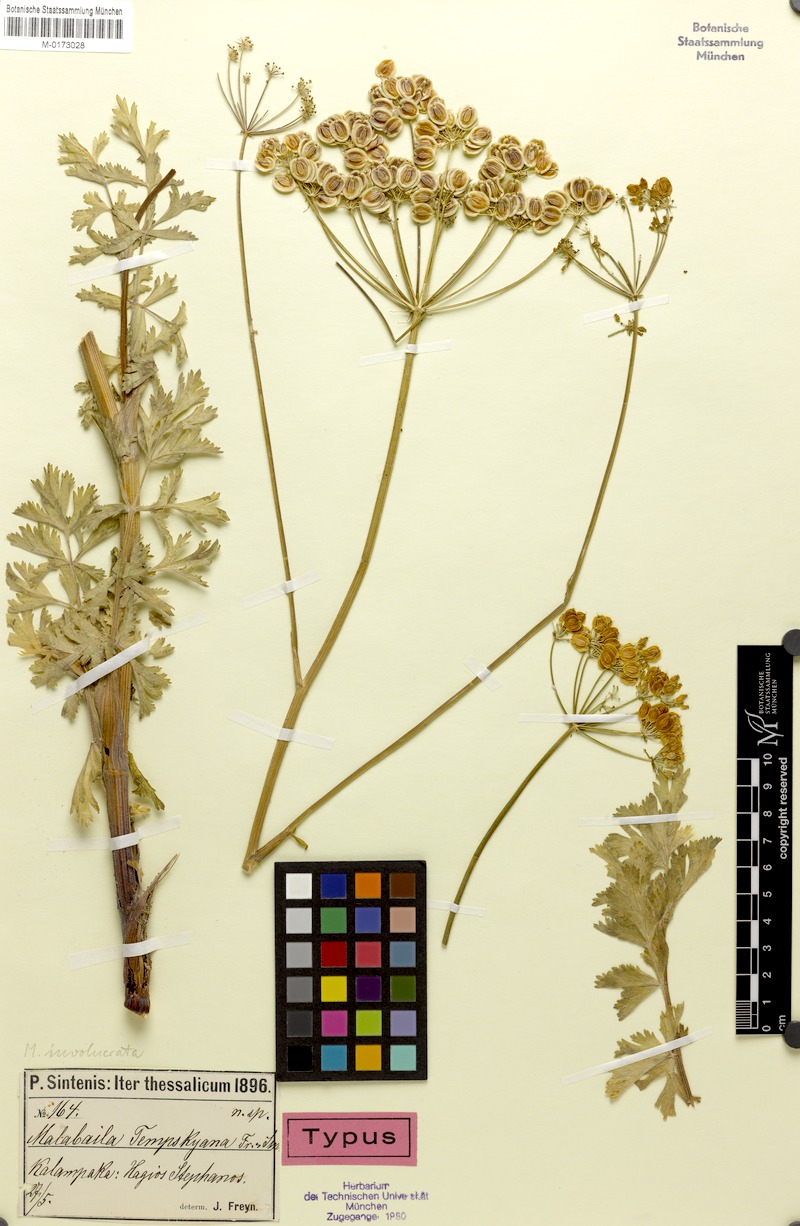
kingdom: Plantae
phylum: Tracheophyta
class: Magnoliopsida
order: Apiales
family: Apiaceae
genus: Leiotulus
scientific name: Leiotulus involucratus
